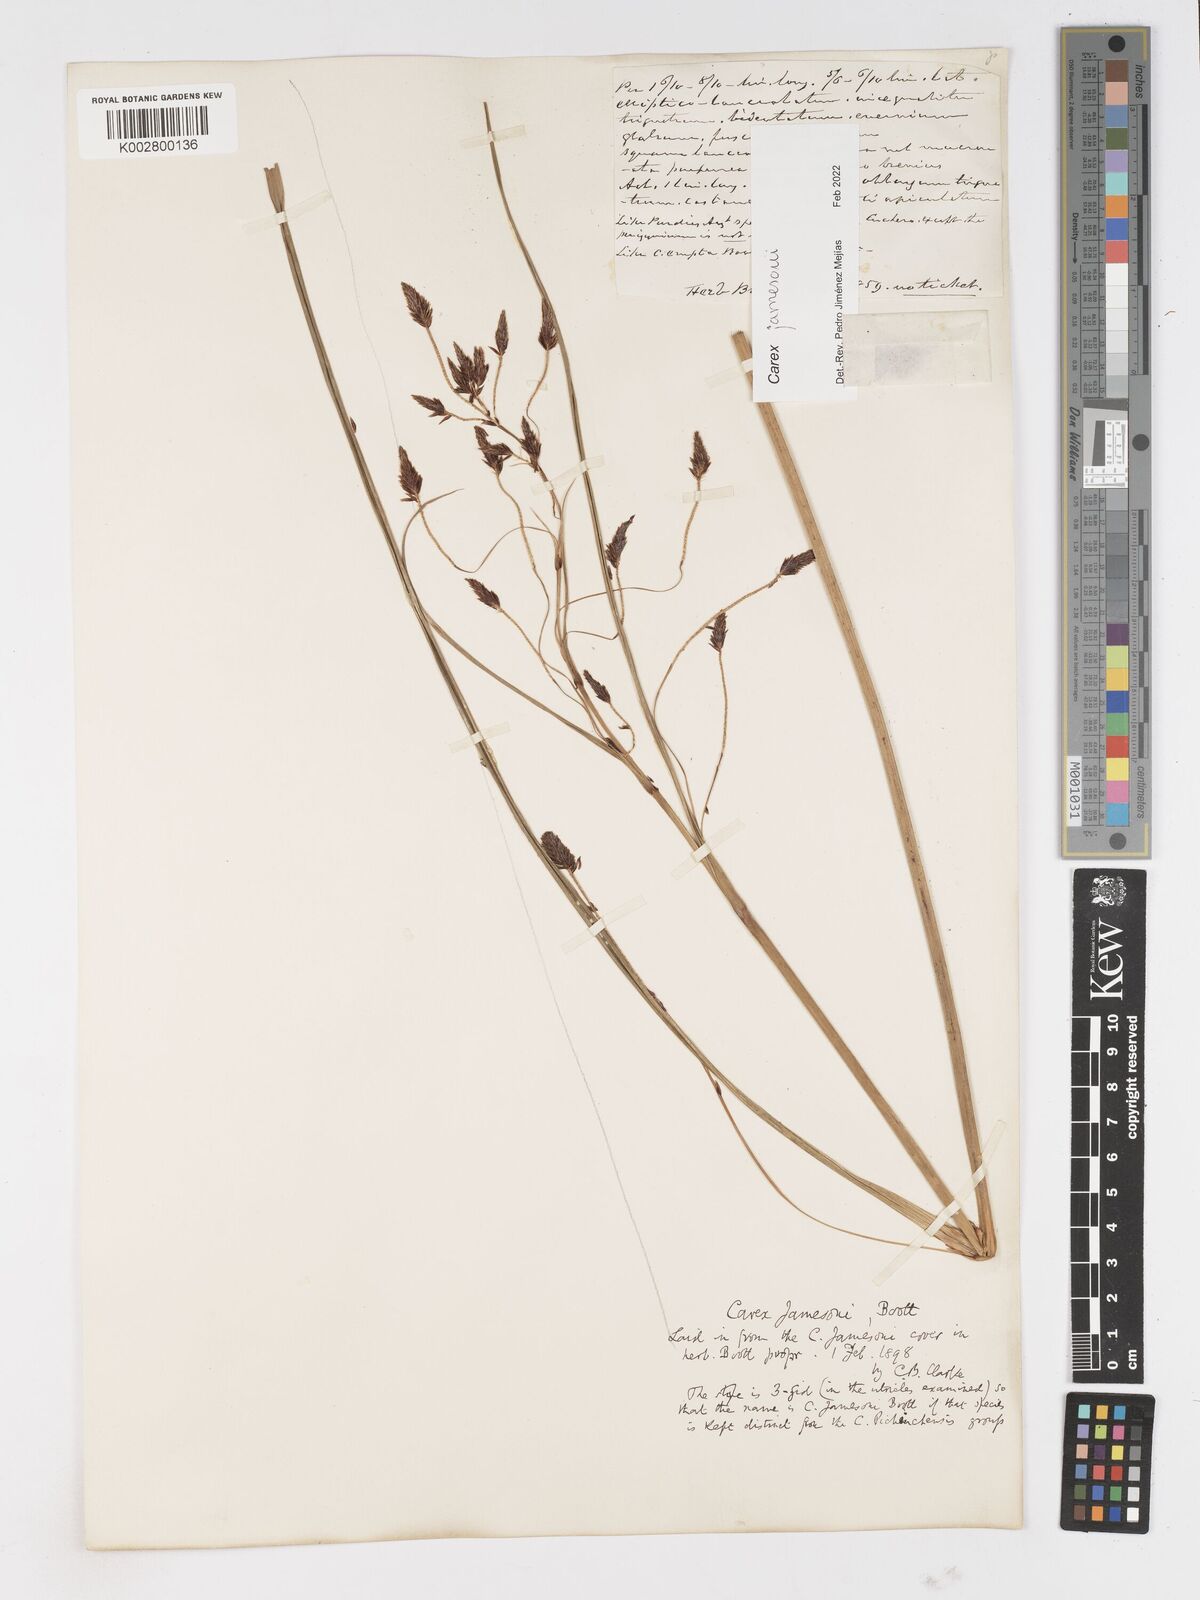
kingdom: Plantae
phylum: Tracheophyta
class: Liliopsida
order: Poales
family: Cyperaceae
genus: Carex
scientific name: Carex jamesonii
